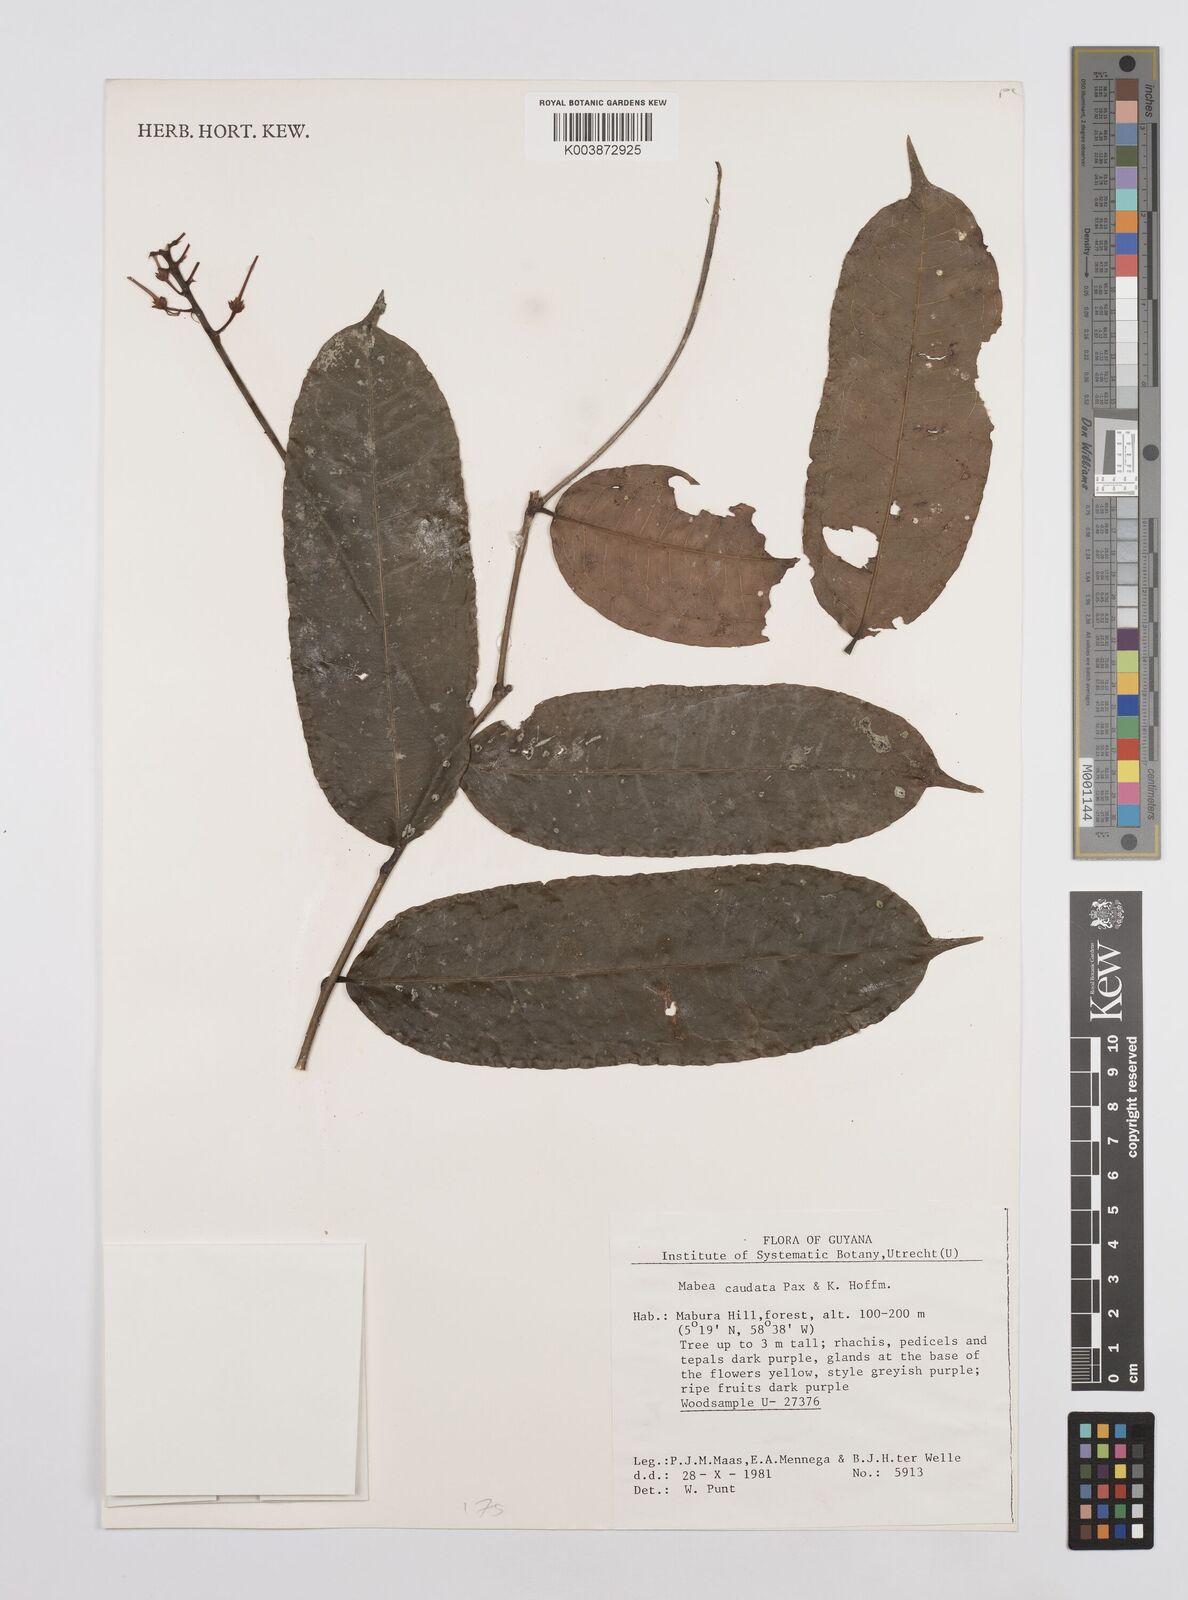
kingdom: Plantae
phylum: Tracheophyta
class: Magnoliopsida
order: Malpighiales
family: Euphorbiaceae
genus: Mabea
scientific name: Mabea caudata
